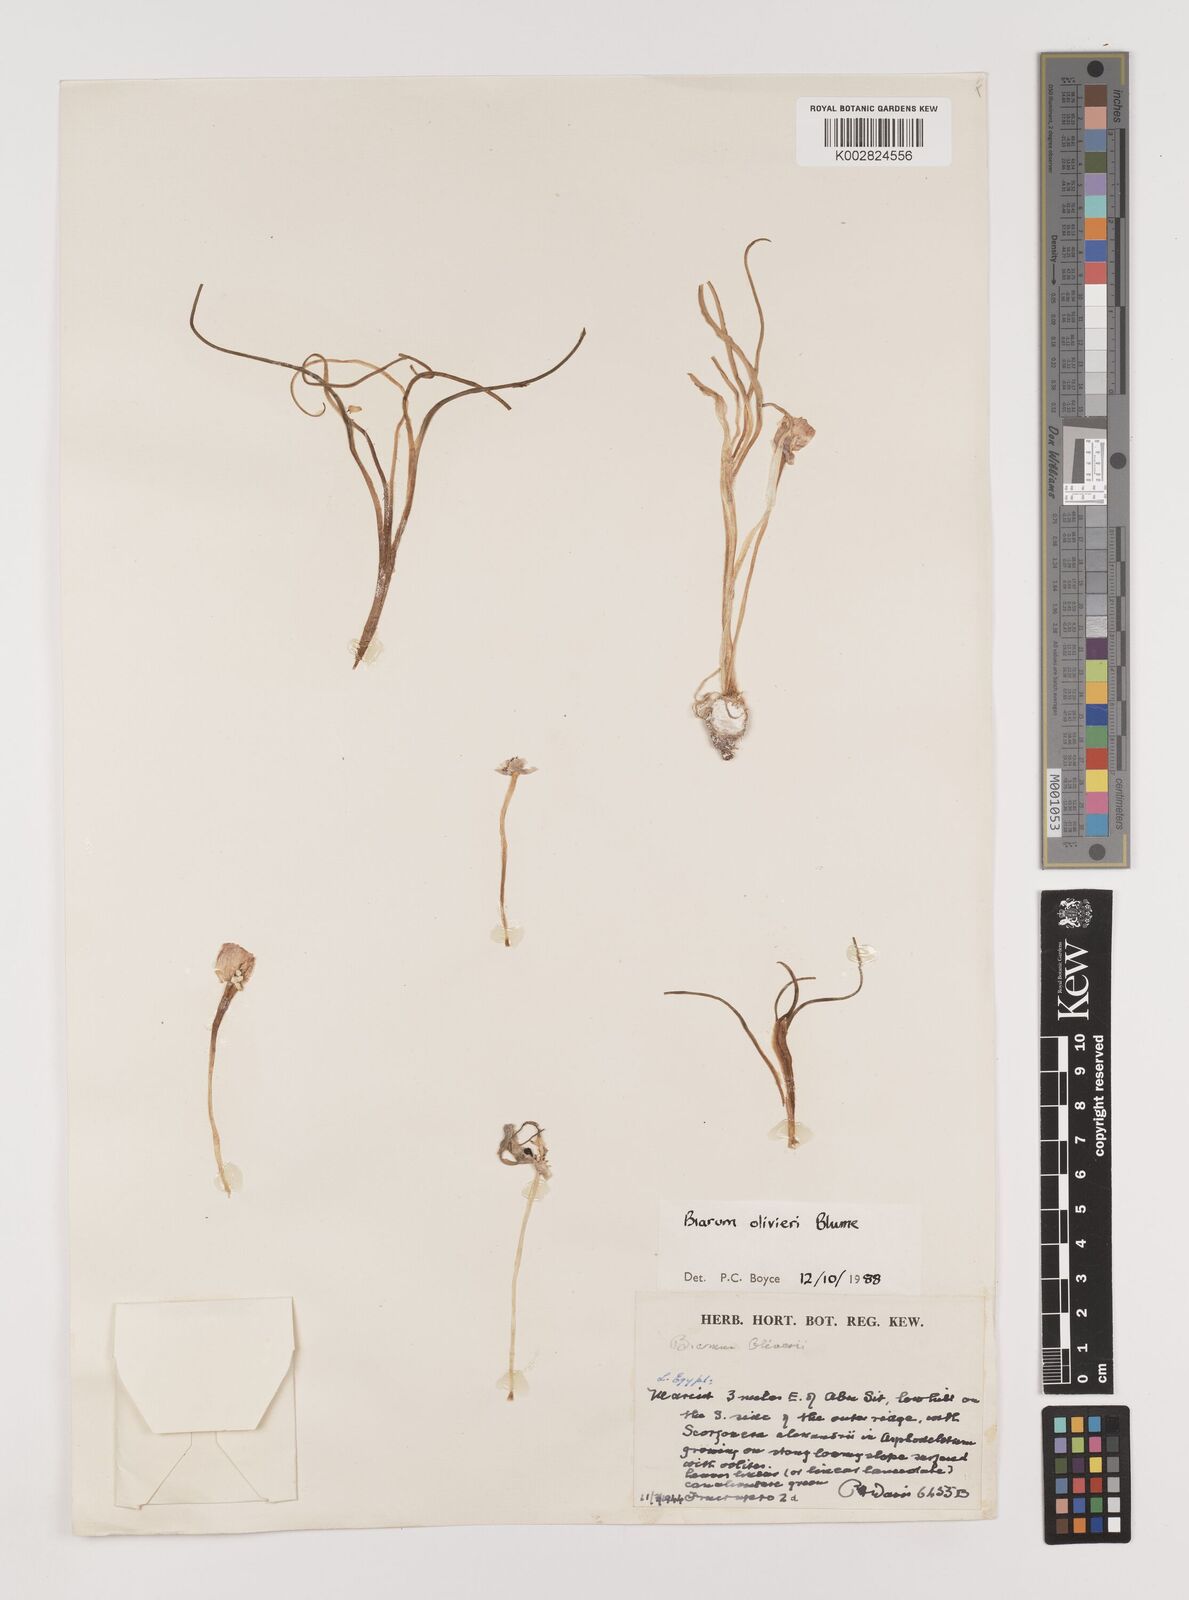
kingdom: Plantae
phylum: Tracheophyta
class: Liliopsida
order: Alismatales
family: Araceae
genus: Biarum
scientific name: Biarum olivieri
